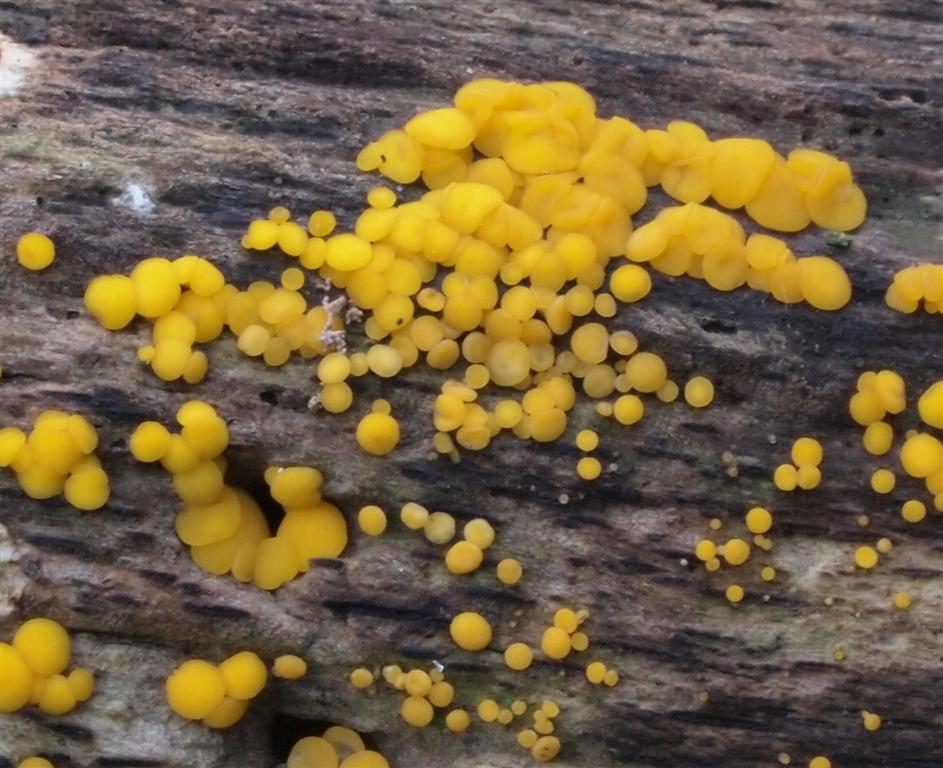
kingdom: Fungi
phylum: Ascomycota
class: Leotiomycetes
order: Helotiales
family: Pezizellaceae
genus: Calycina
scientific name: Calycina citrina
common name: almindelig gulskive
